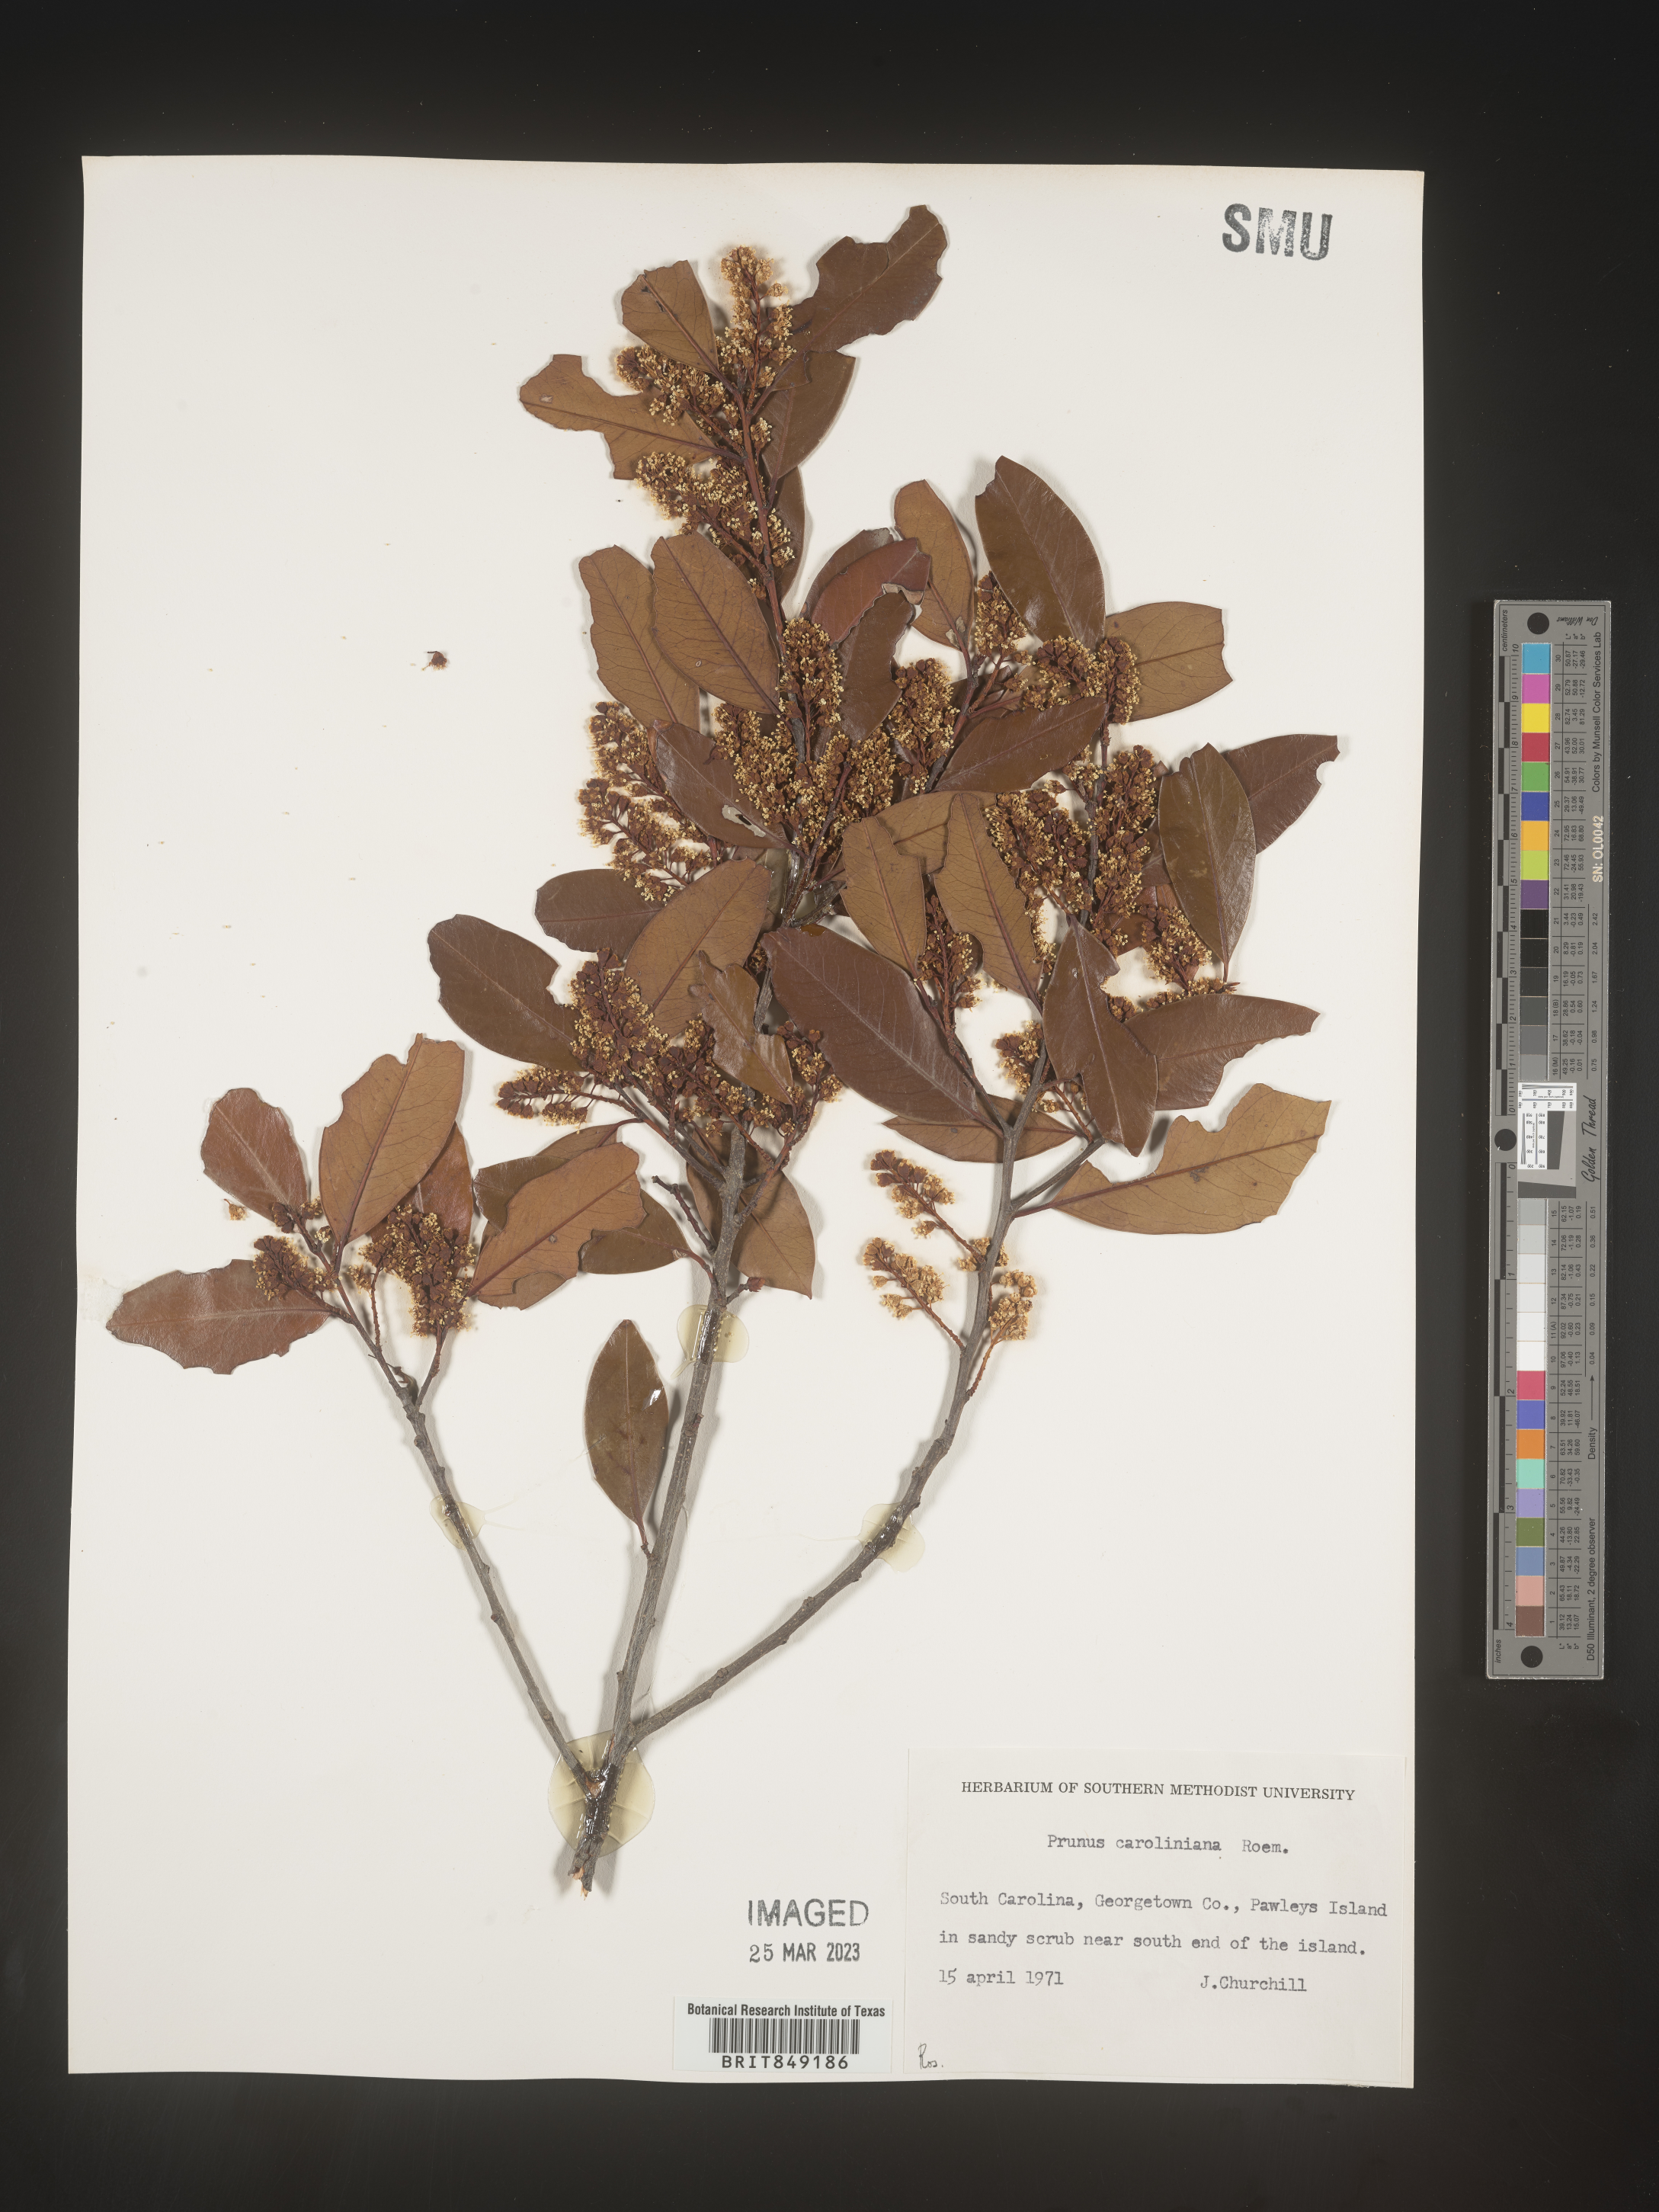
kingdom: Plantae
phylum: Tracheophyta
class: Magnoliopsida
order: Rosales
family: Rosaceae
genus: Prunus
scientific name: Prunus
